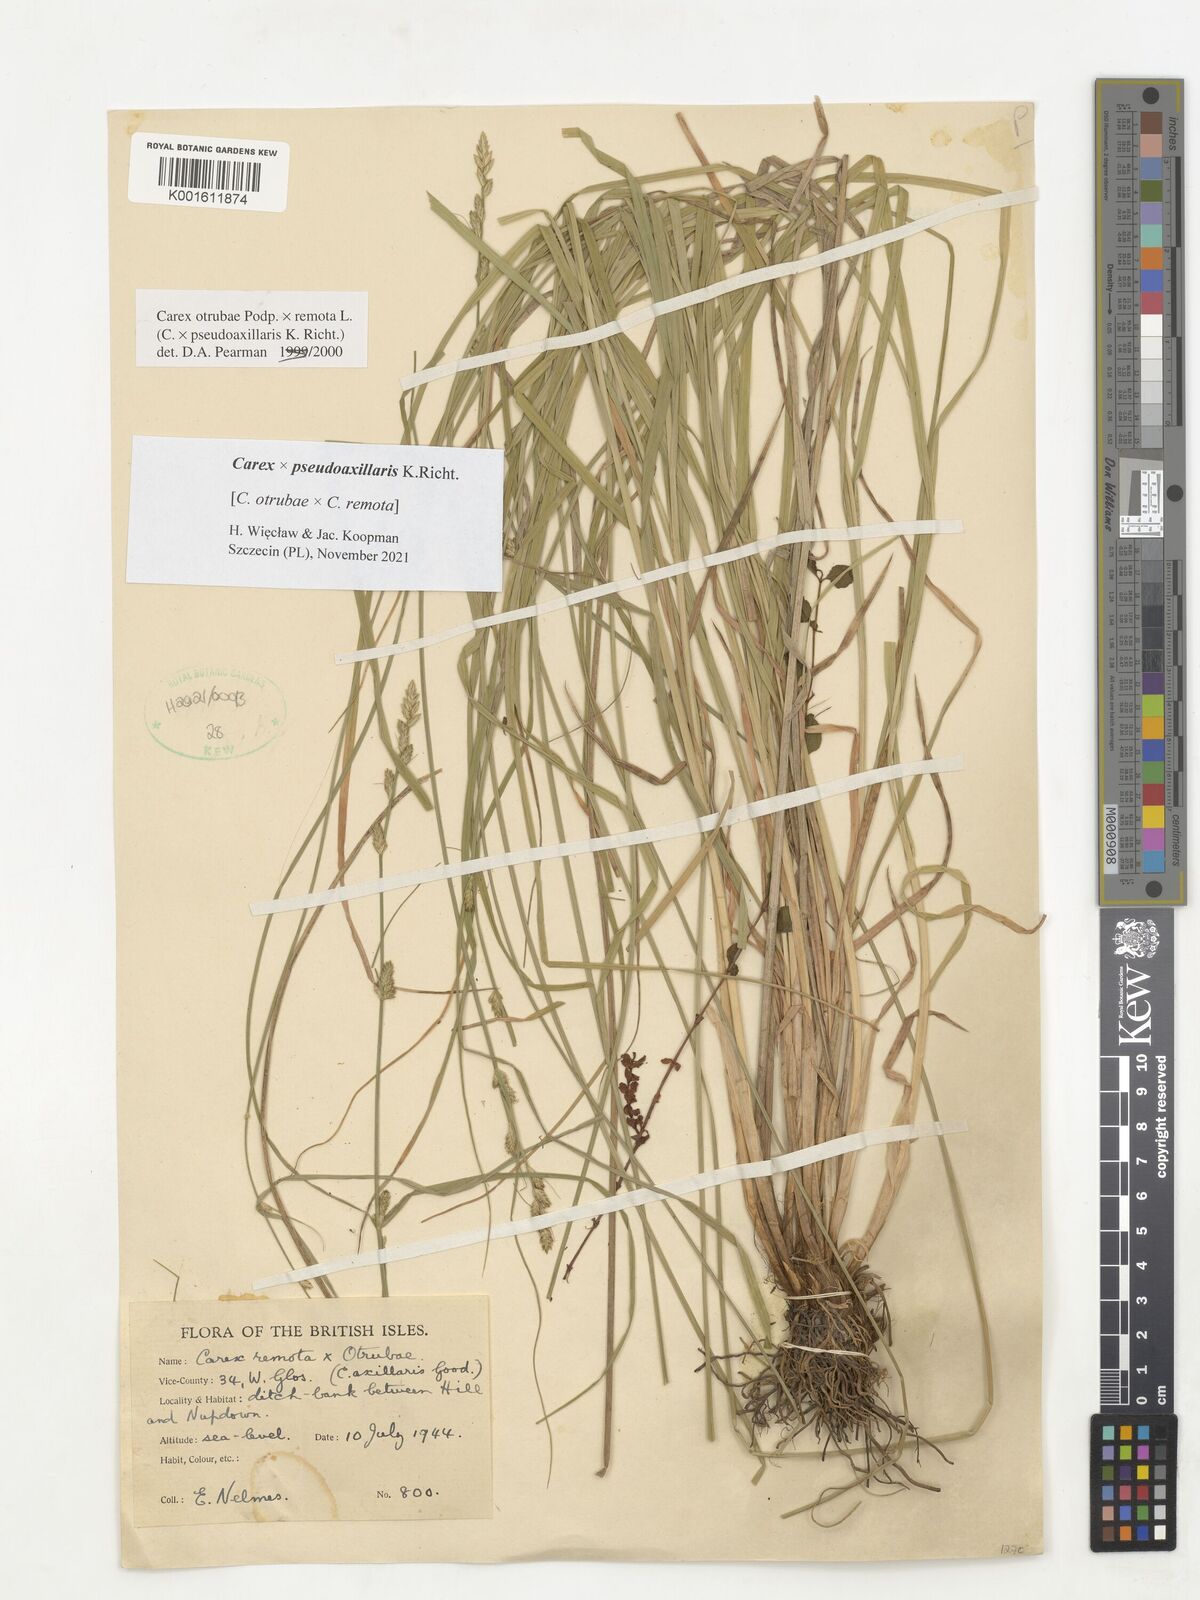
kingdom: Plantae
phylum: Tracheophyta
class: Liliopsida
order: Poales
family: Cyperaceae
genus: Carex
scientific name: Carex pseudoaxillaris
